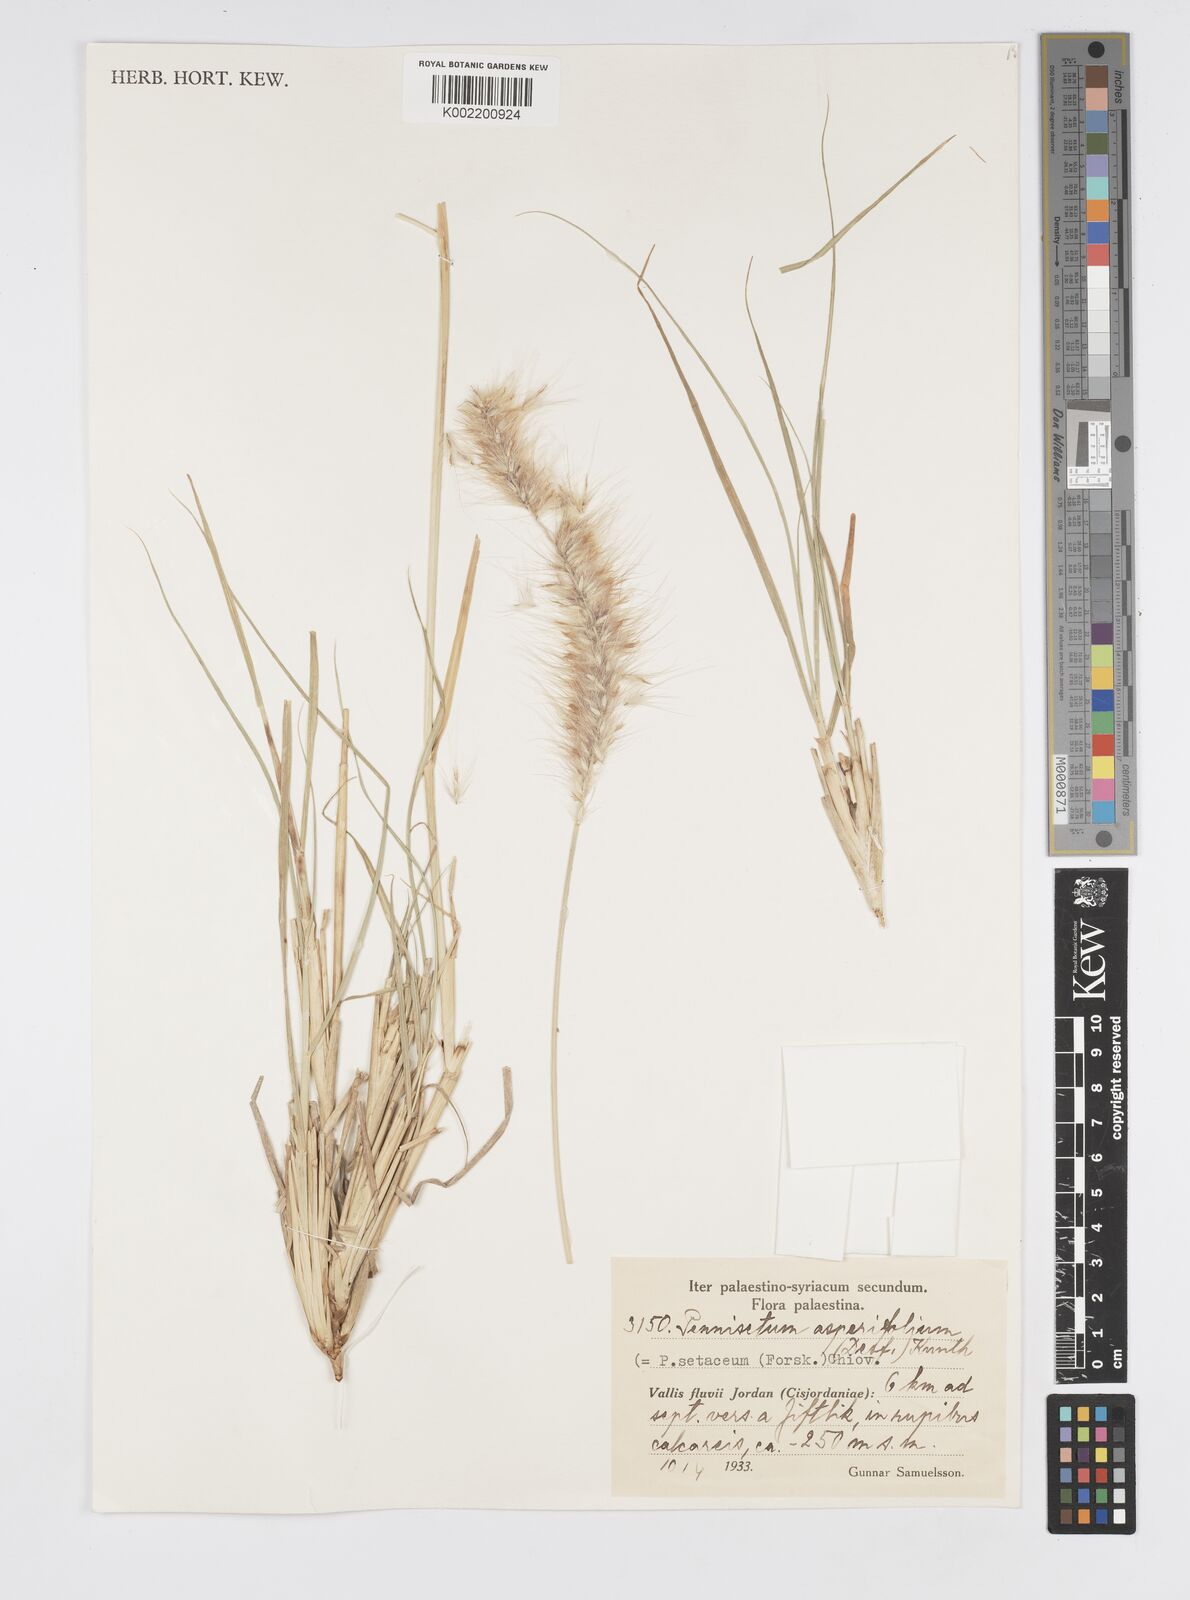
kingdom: Plantae
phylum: Tracheophyta
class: Liliopsida
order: Poales
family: Poaceae
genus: Cenchrus
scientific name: Cenchrus setaceus
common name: Crimson fountaingrass
